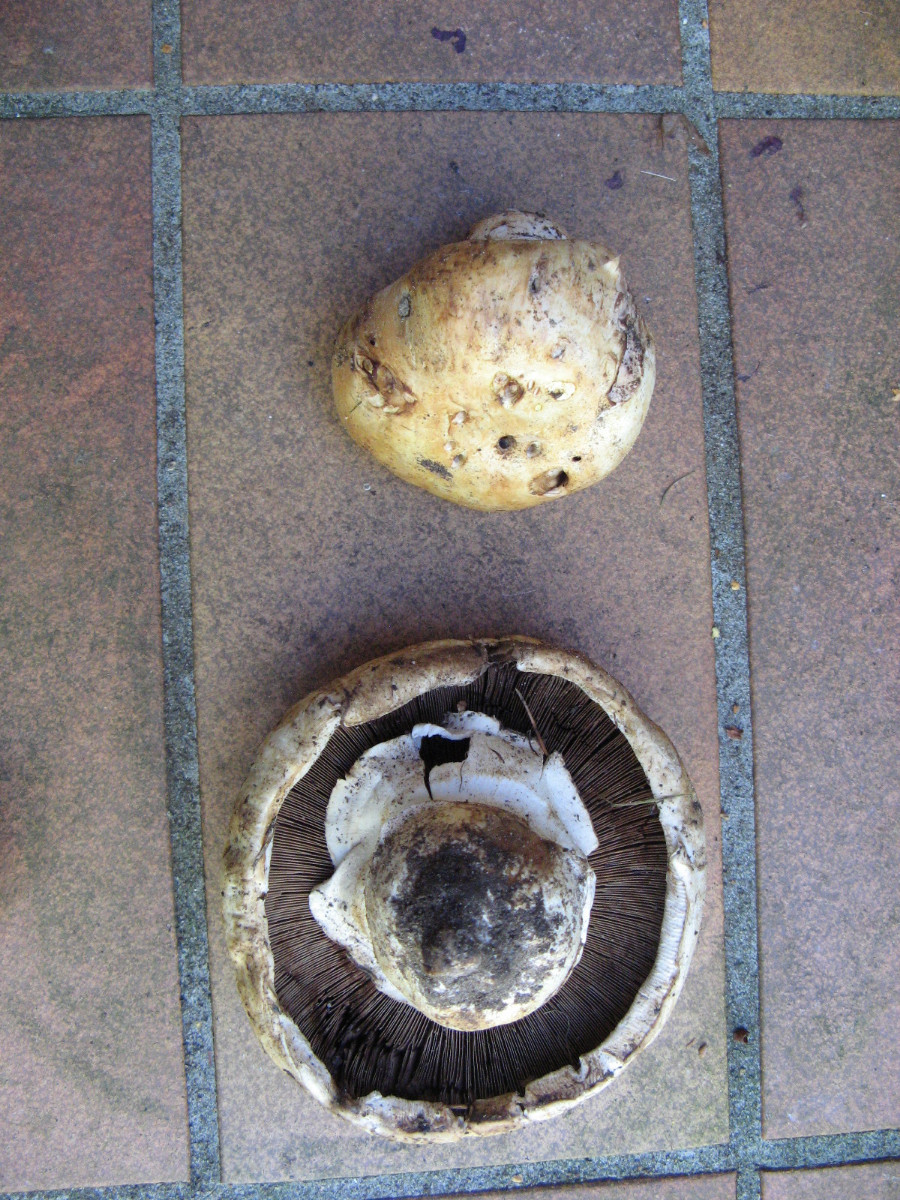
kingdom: Fungi
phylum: Basidiomycota
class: Agaricomycetes
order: Agaricales
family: Agaricaceae
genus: Agaricus
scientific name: Agaricus
